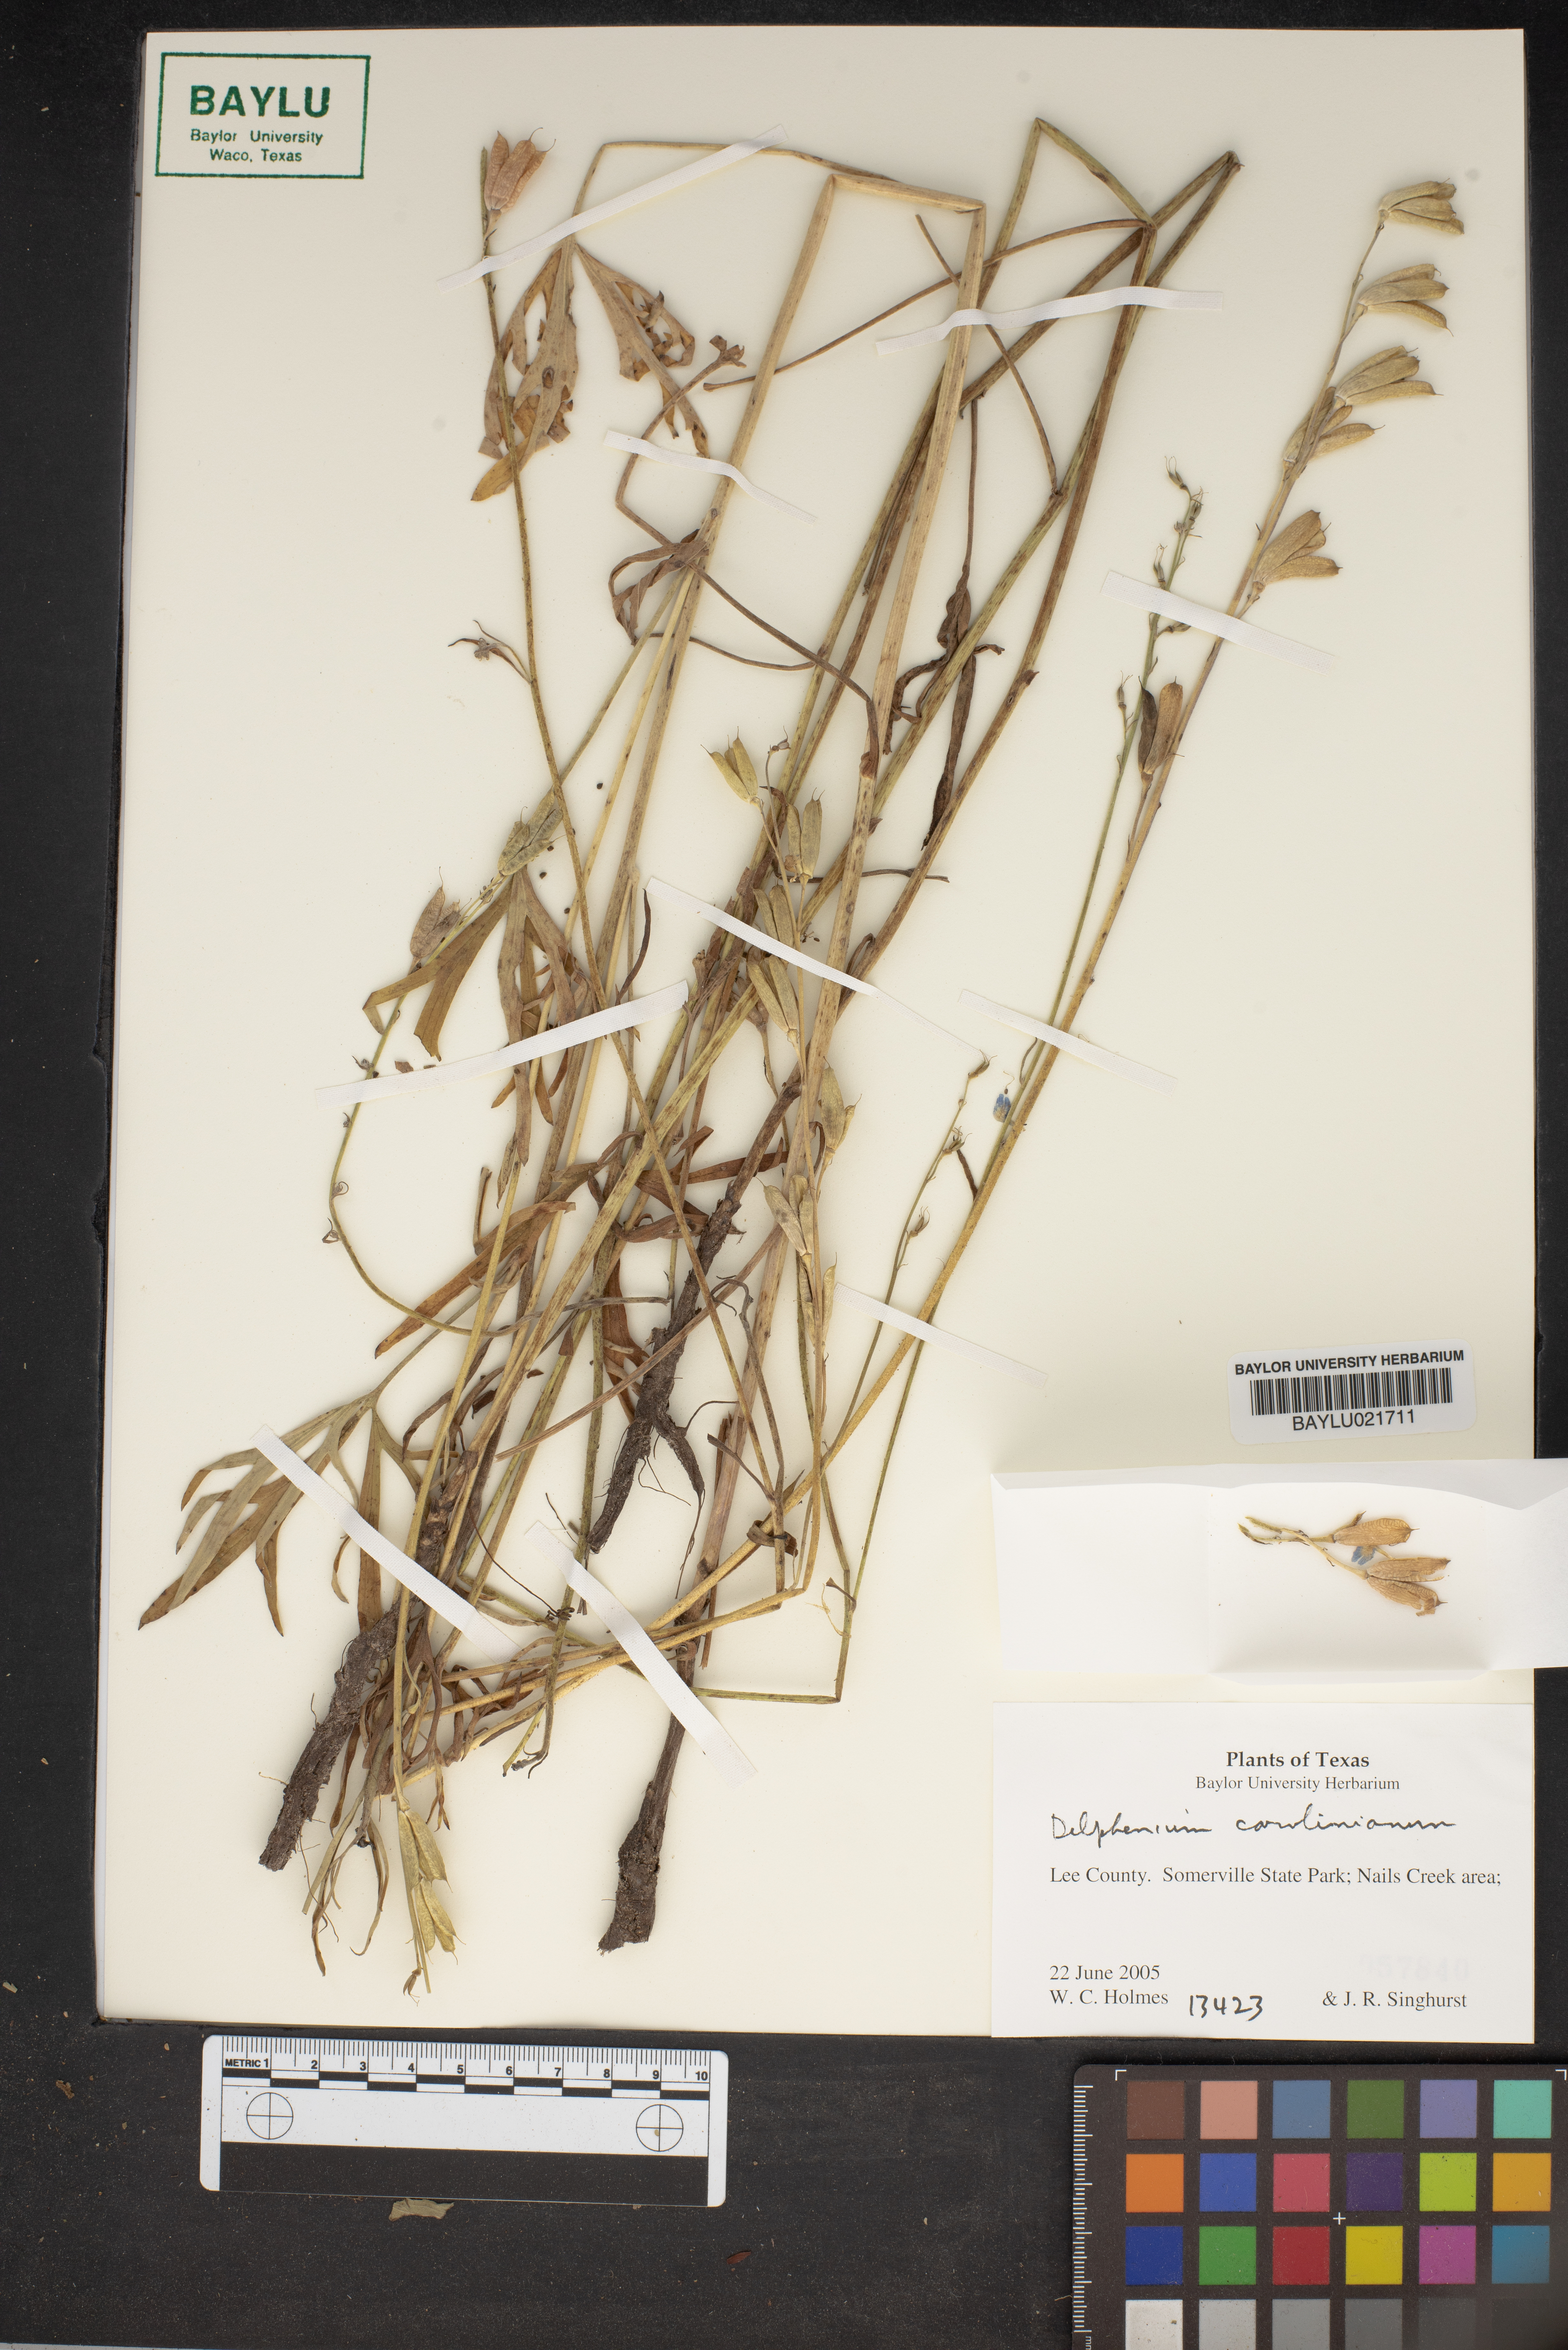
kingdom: Plantae
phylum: Tracheophyta
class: Magnoliopsida
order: Ranunculales
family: Ranunculaceae
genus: Delphinium
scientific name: Delphinium carolinianum
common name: Carolina larkspur
